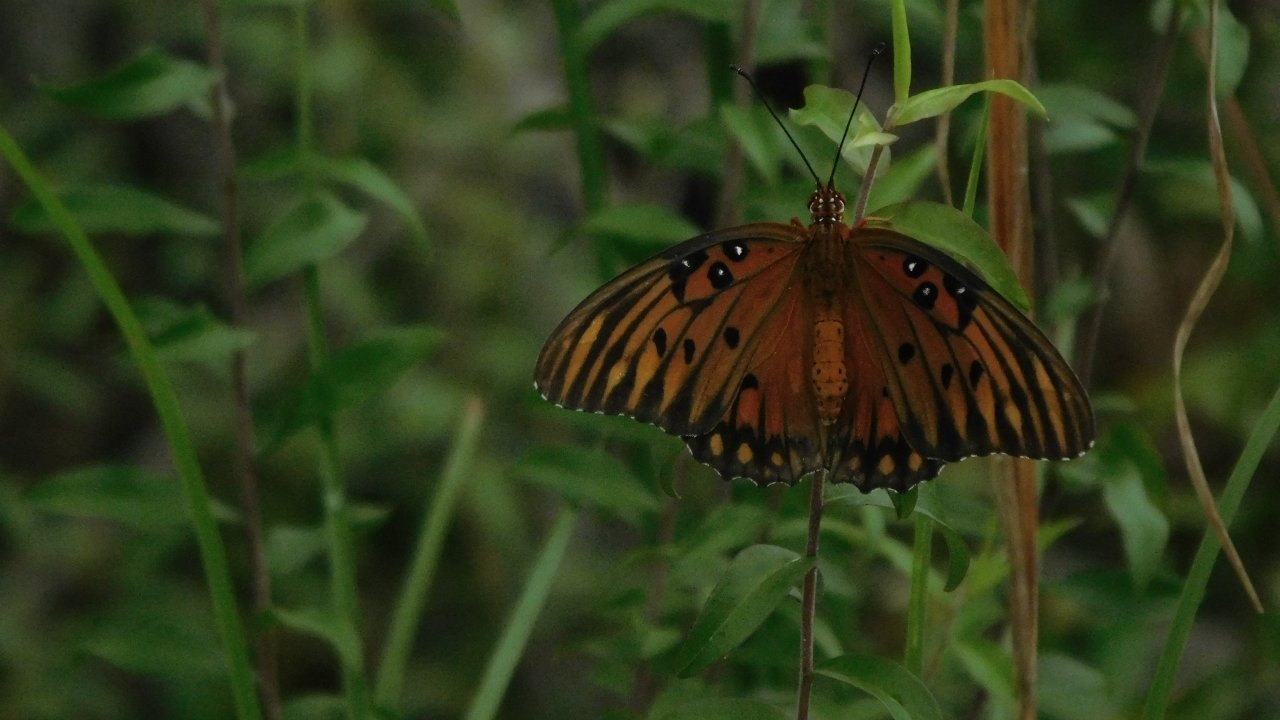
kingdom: Animalia
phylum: Arthropoda
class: Insecta
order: Lepidoptera
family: Nymphalidae
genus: Dione
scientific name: Dione vanillae
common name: Gulf Fritillary
